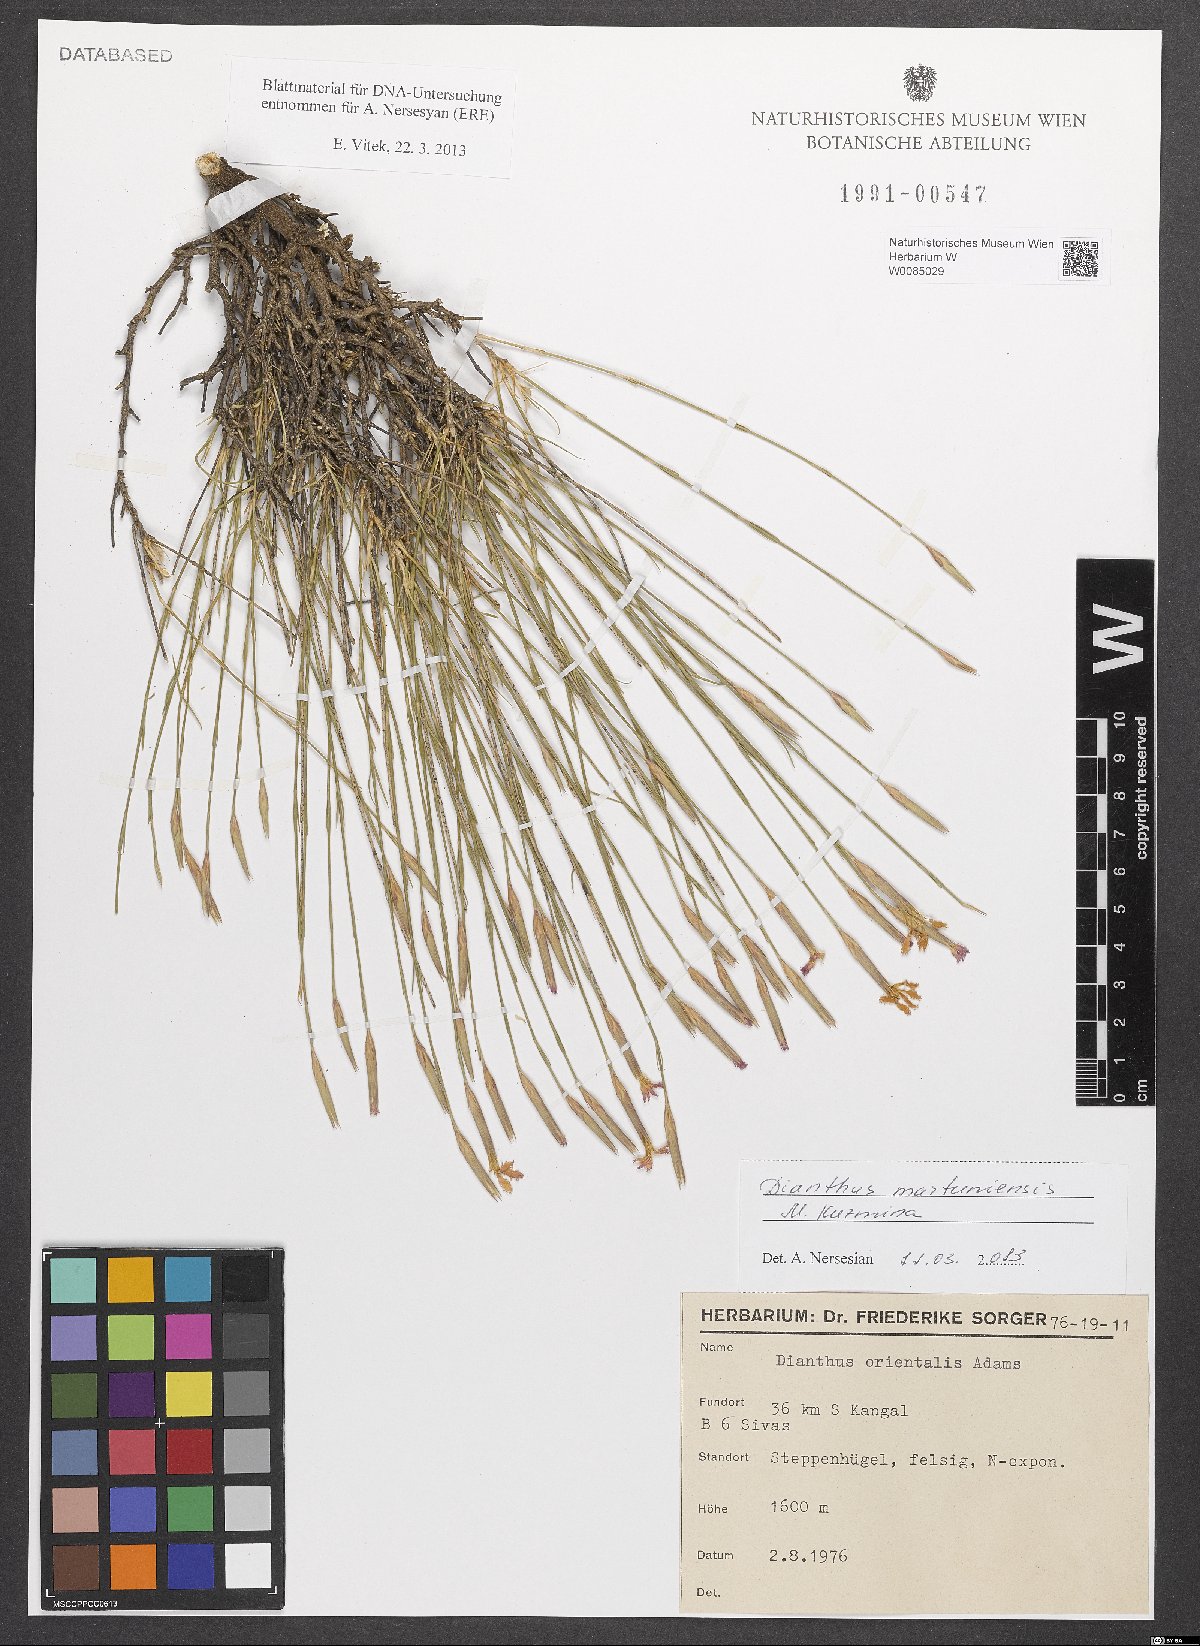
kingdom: Plantae
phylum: Tracheophyta
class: Magnoliopsida
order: Caryophyllales
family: Caryophyllaceae
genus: Dianthus
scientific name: Dianthus martuniensis
